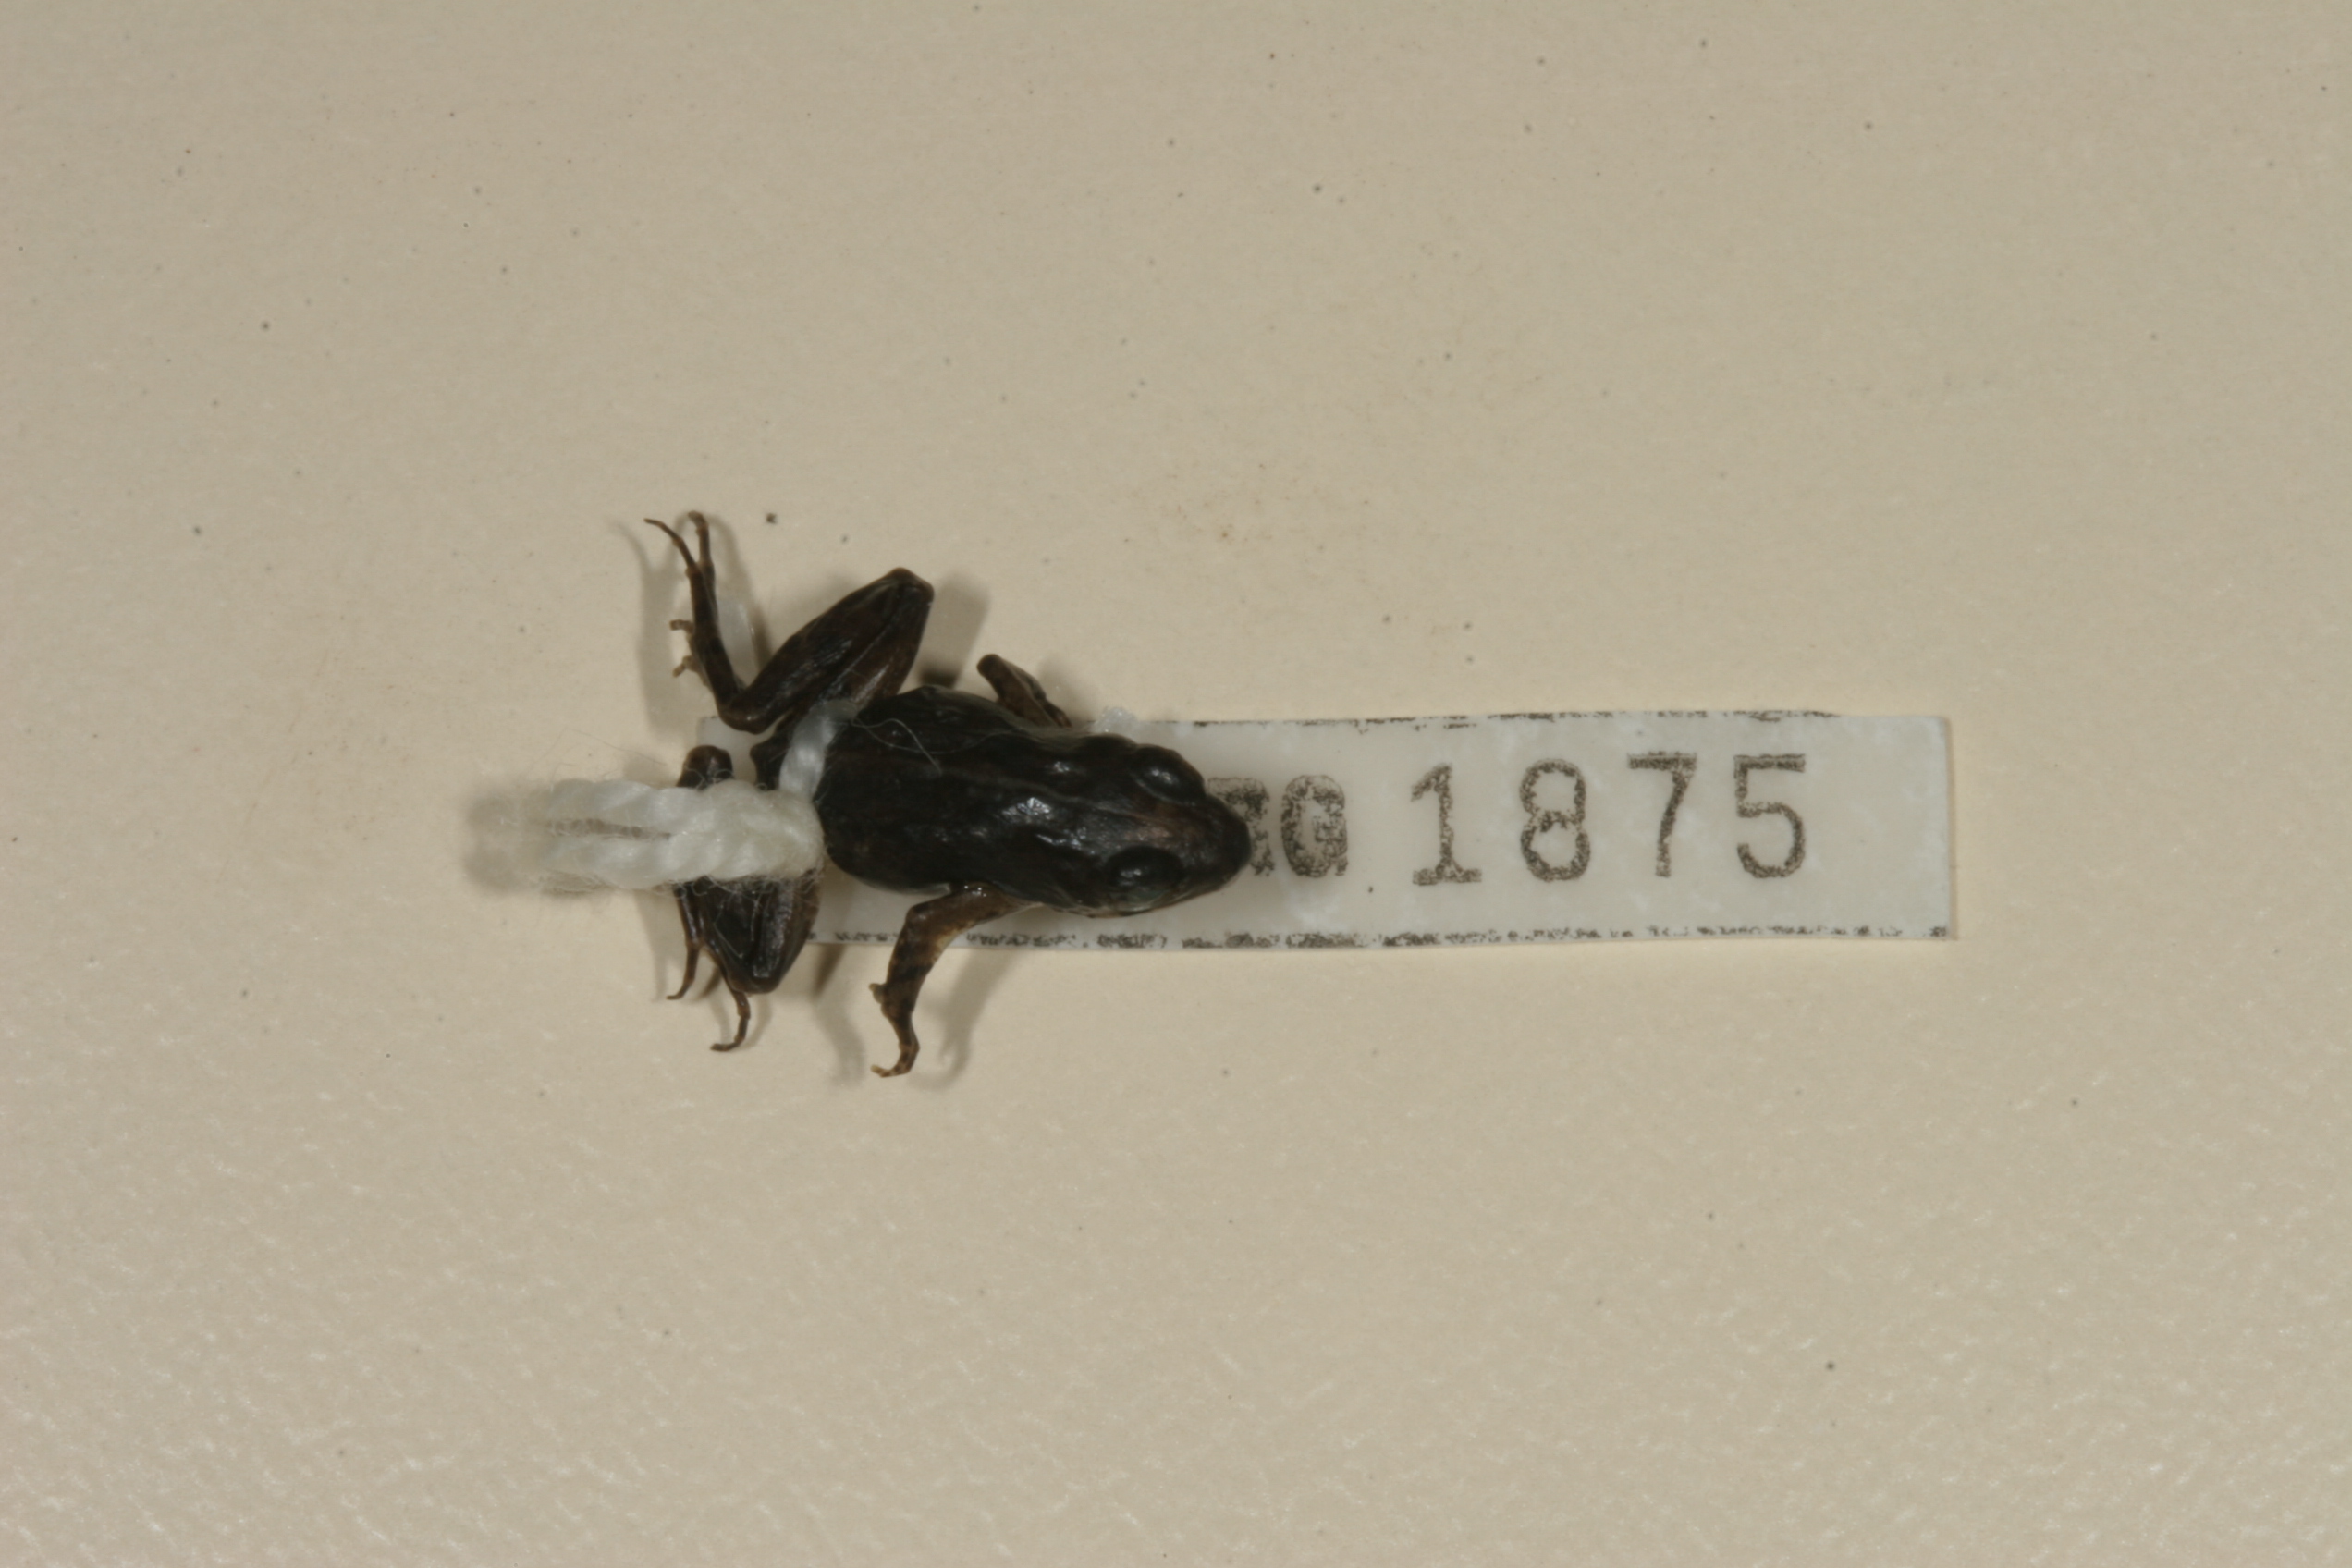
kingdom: Animalia
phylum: Chordata
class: Amphibia
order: Anura
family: Phrynobatrachidae
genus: Phrynobatrachus
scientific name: Phrynobatrachus mababiensis
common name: Dwarf puddle frog
